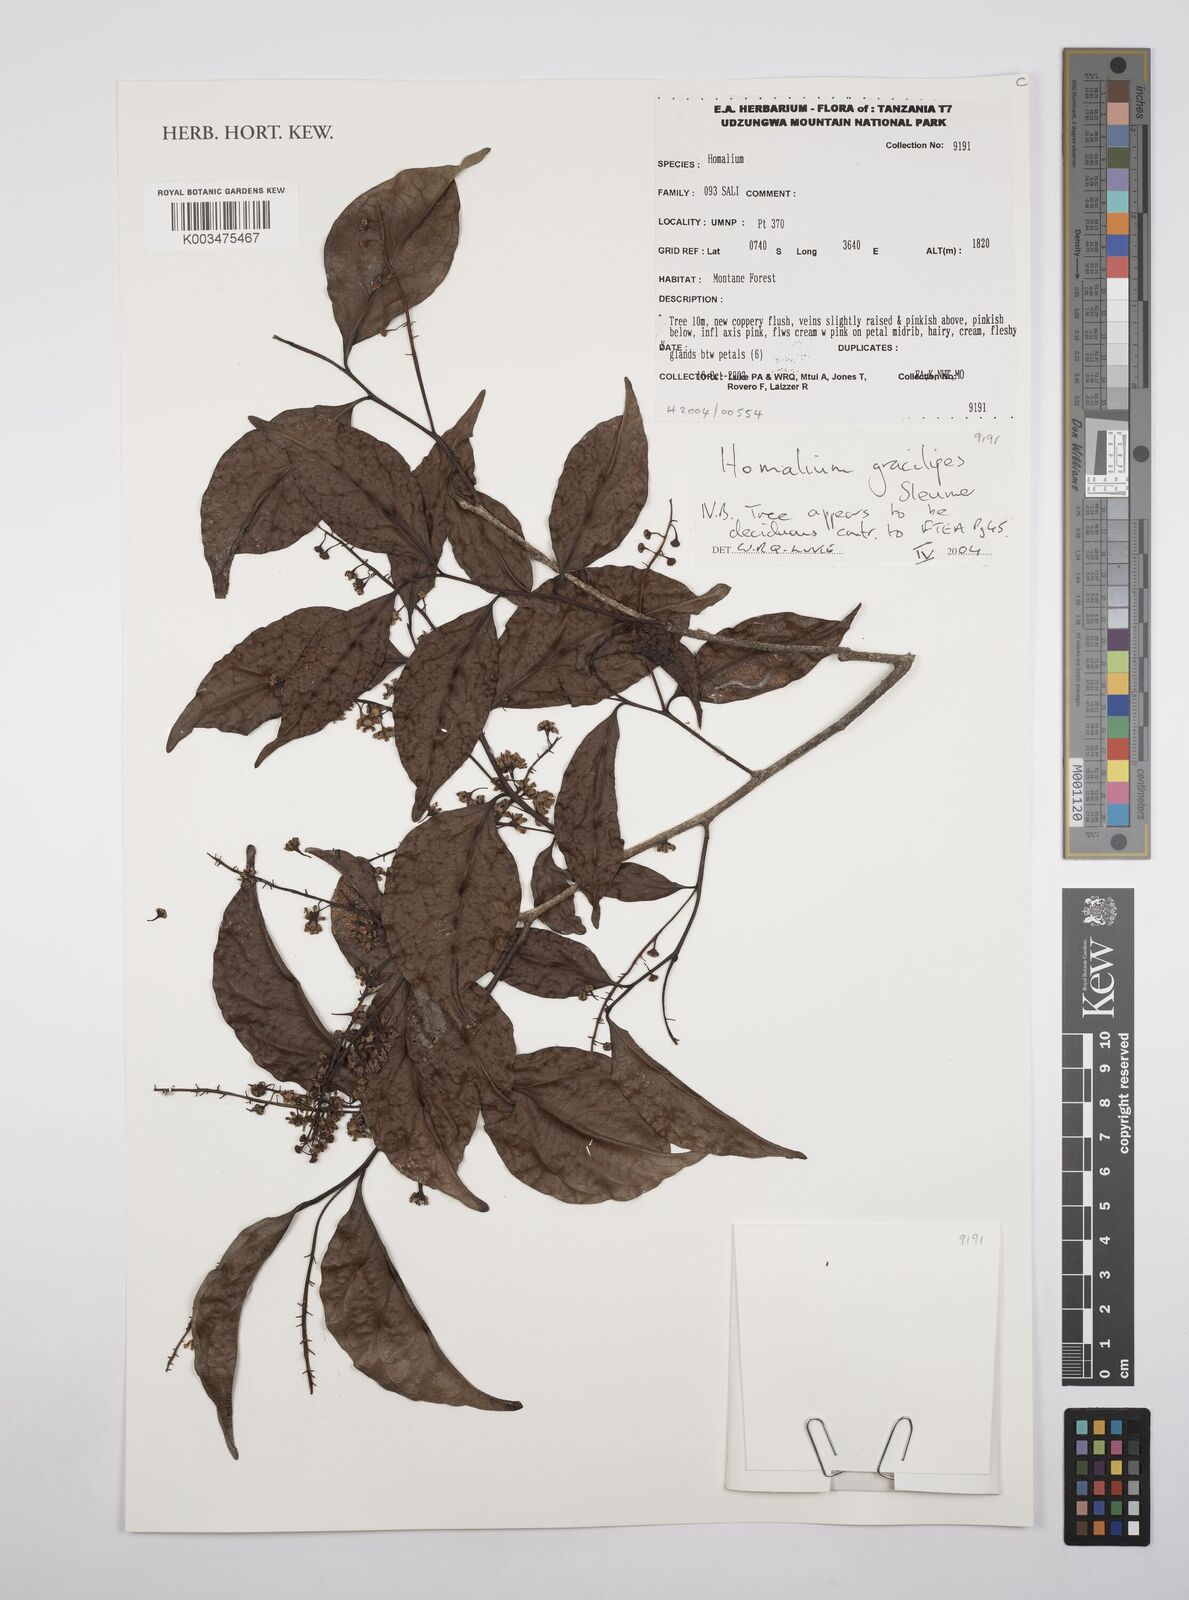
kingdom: Plantae
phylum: Tracheophyta
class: Magnoliopsida
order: Malpighiales
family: Salicaceae
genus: Homalium
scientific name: Homalium gracilipes
